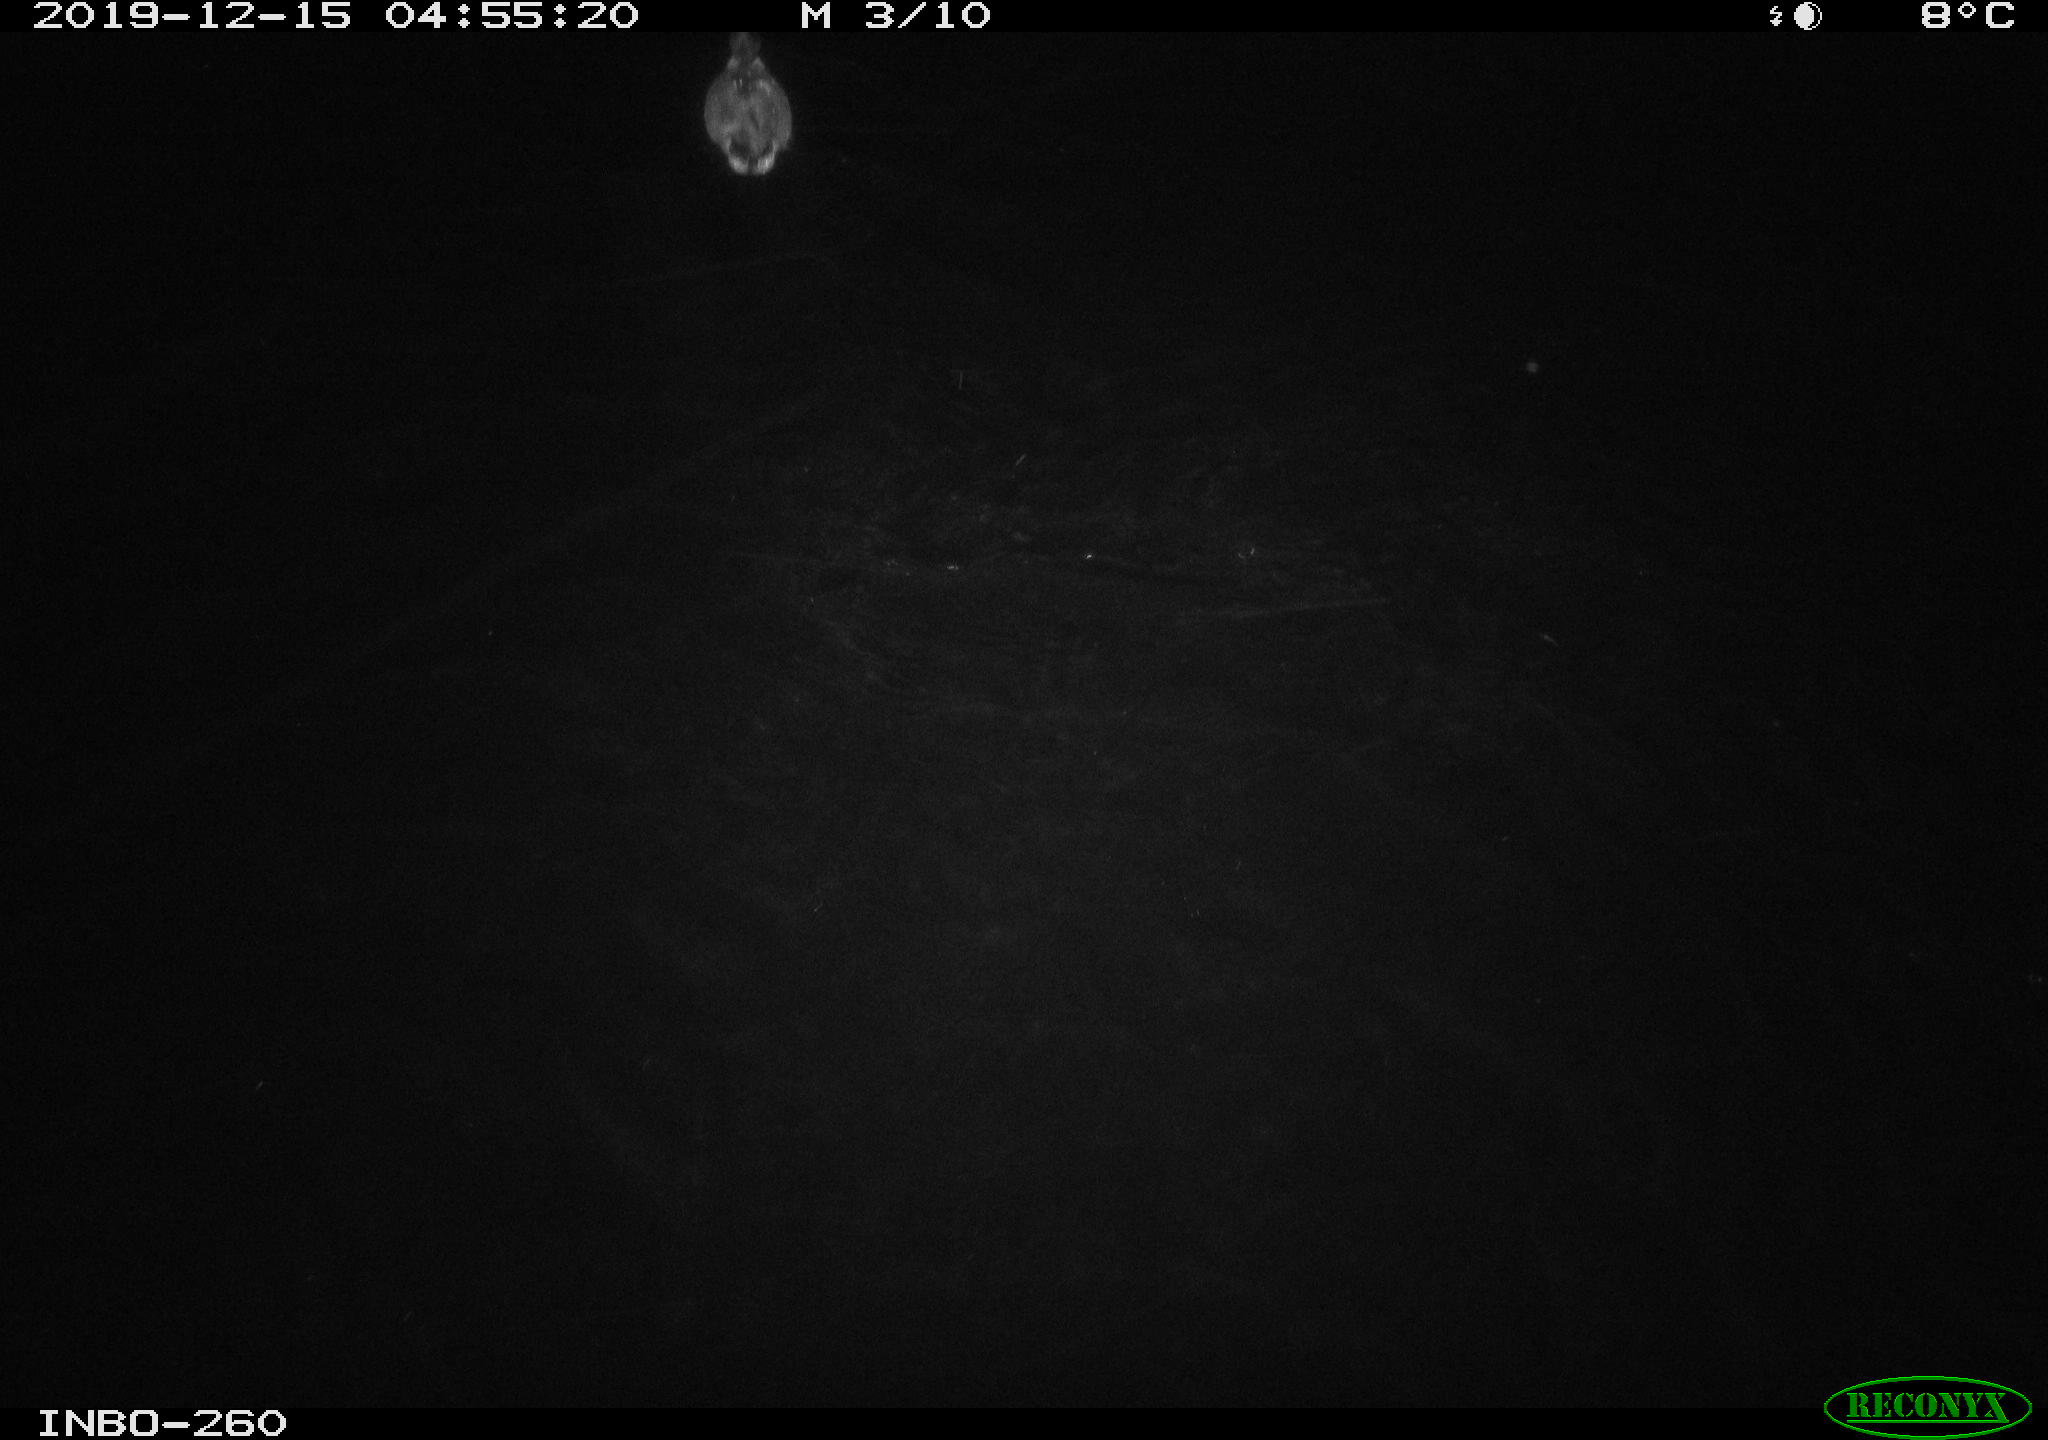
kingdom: Animalia
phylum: Chordata
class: Aves
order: Anseriformes
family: Anatidae
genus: Anas
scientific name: Anas platyrhynchos
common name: Mallard
